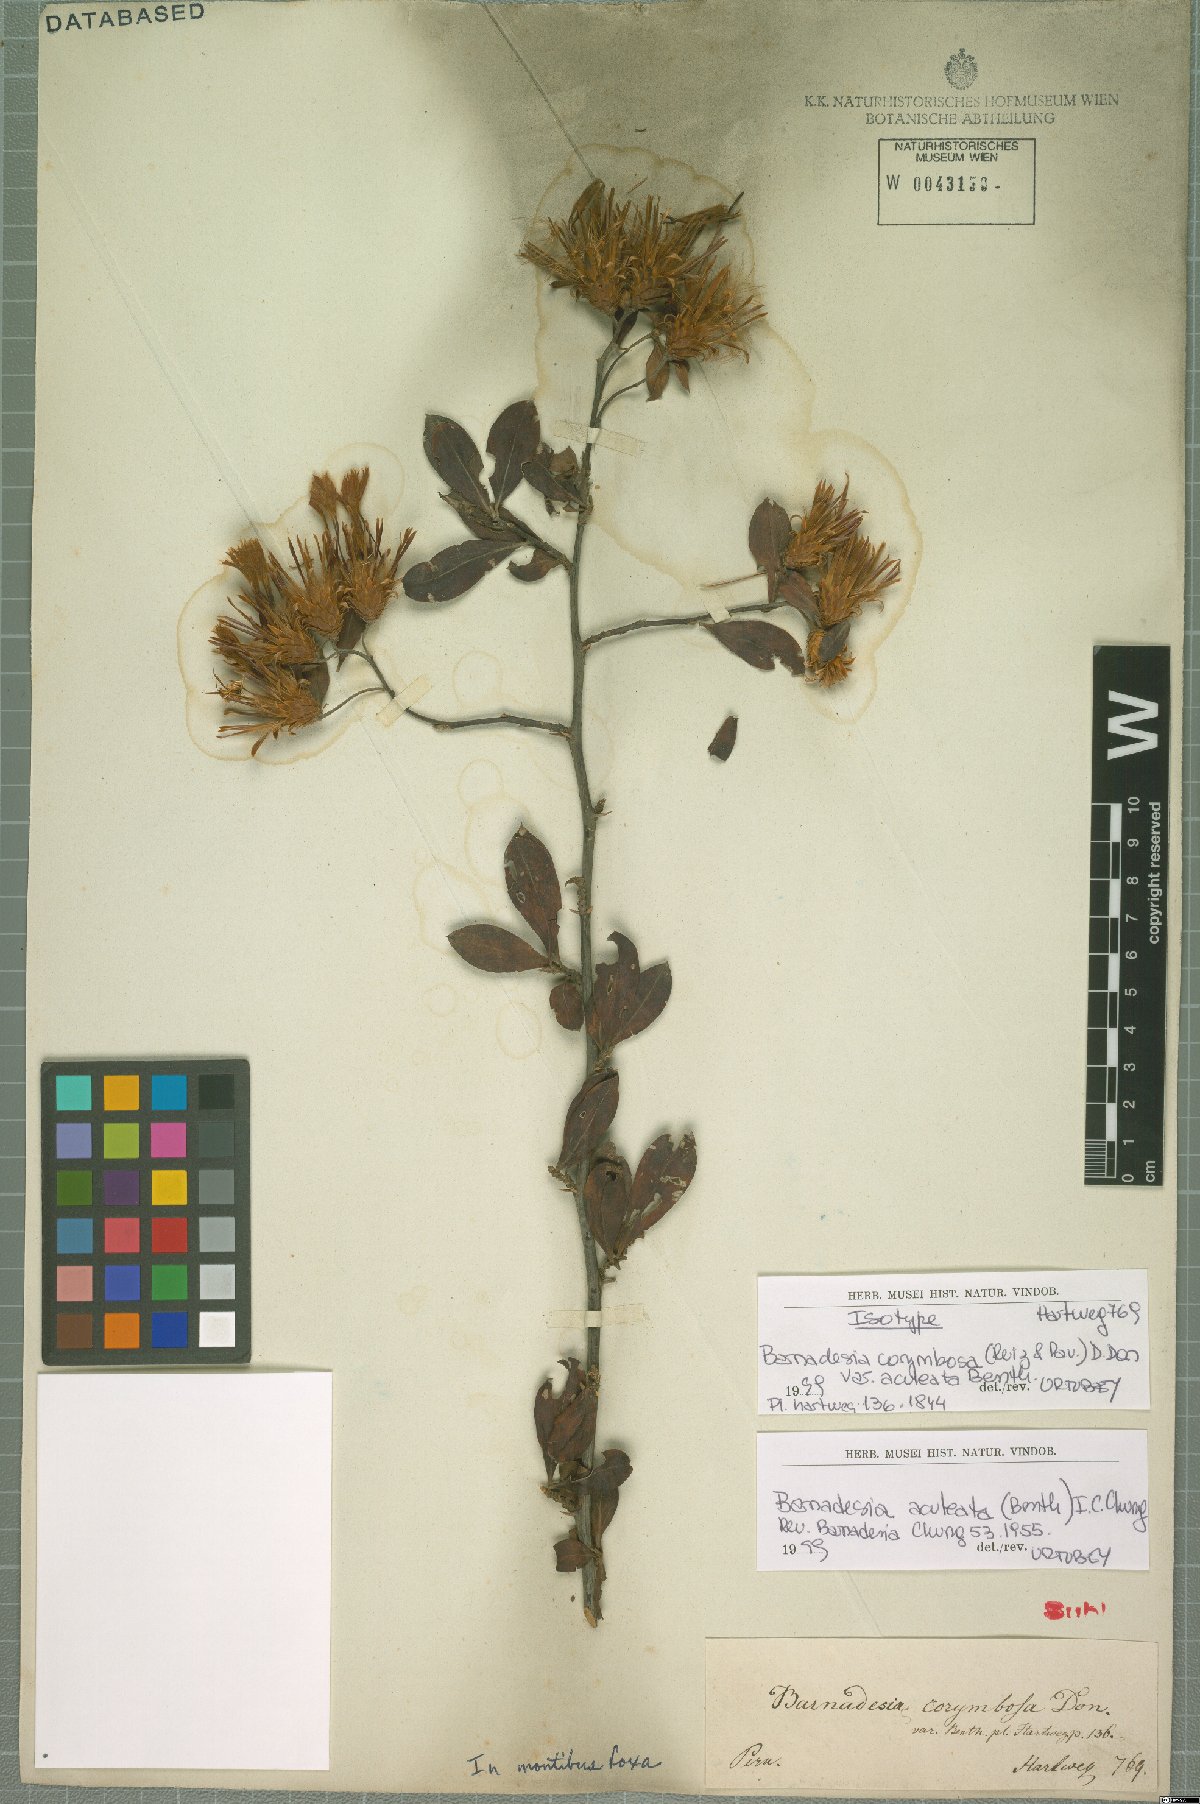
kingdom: Plantae
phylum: Tracheophyta
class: Magnoliopsida
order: Asterales
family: Asteraceae
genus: Barnadesia
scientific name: Barnadesia aculeata
